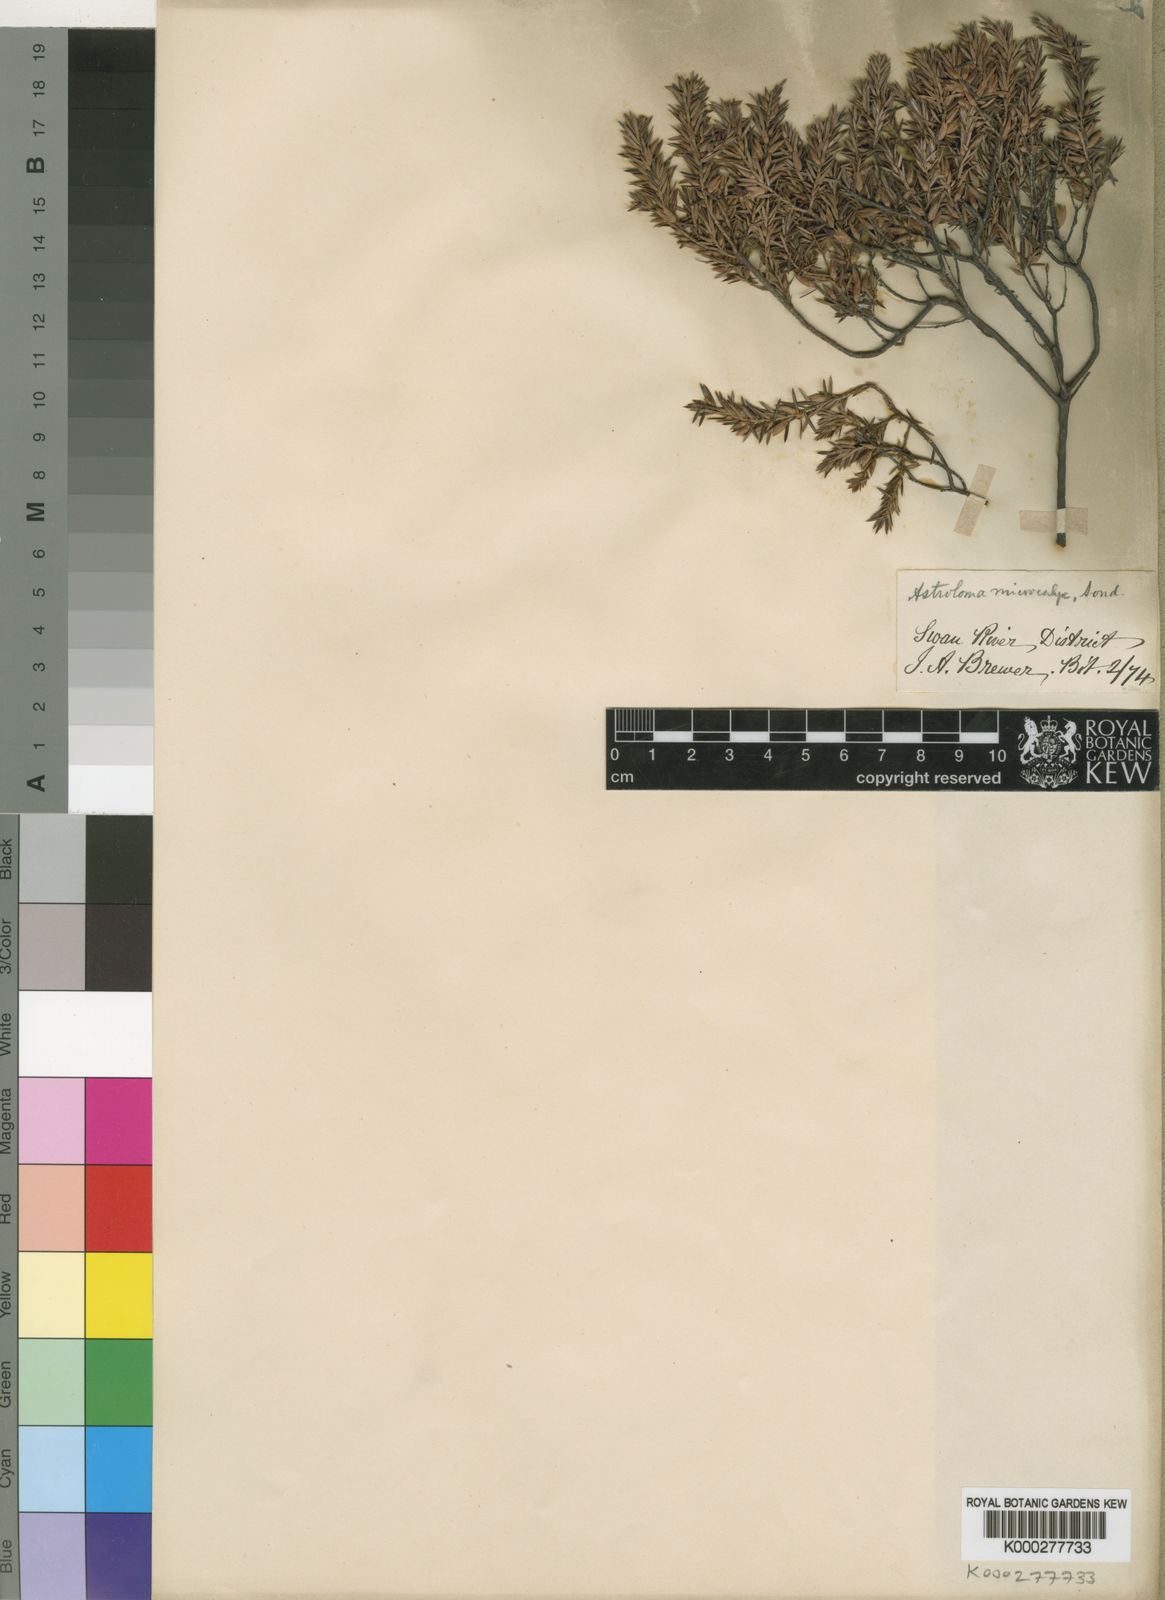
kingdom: Plantae
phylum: Tracheophyta
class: Magnoliopsida
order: Ericales
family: Ericaceae
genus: Styphelia
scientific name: Styphelia microcalyx
